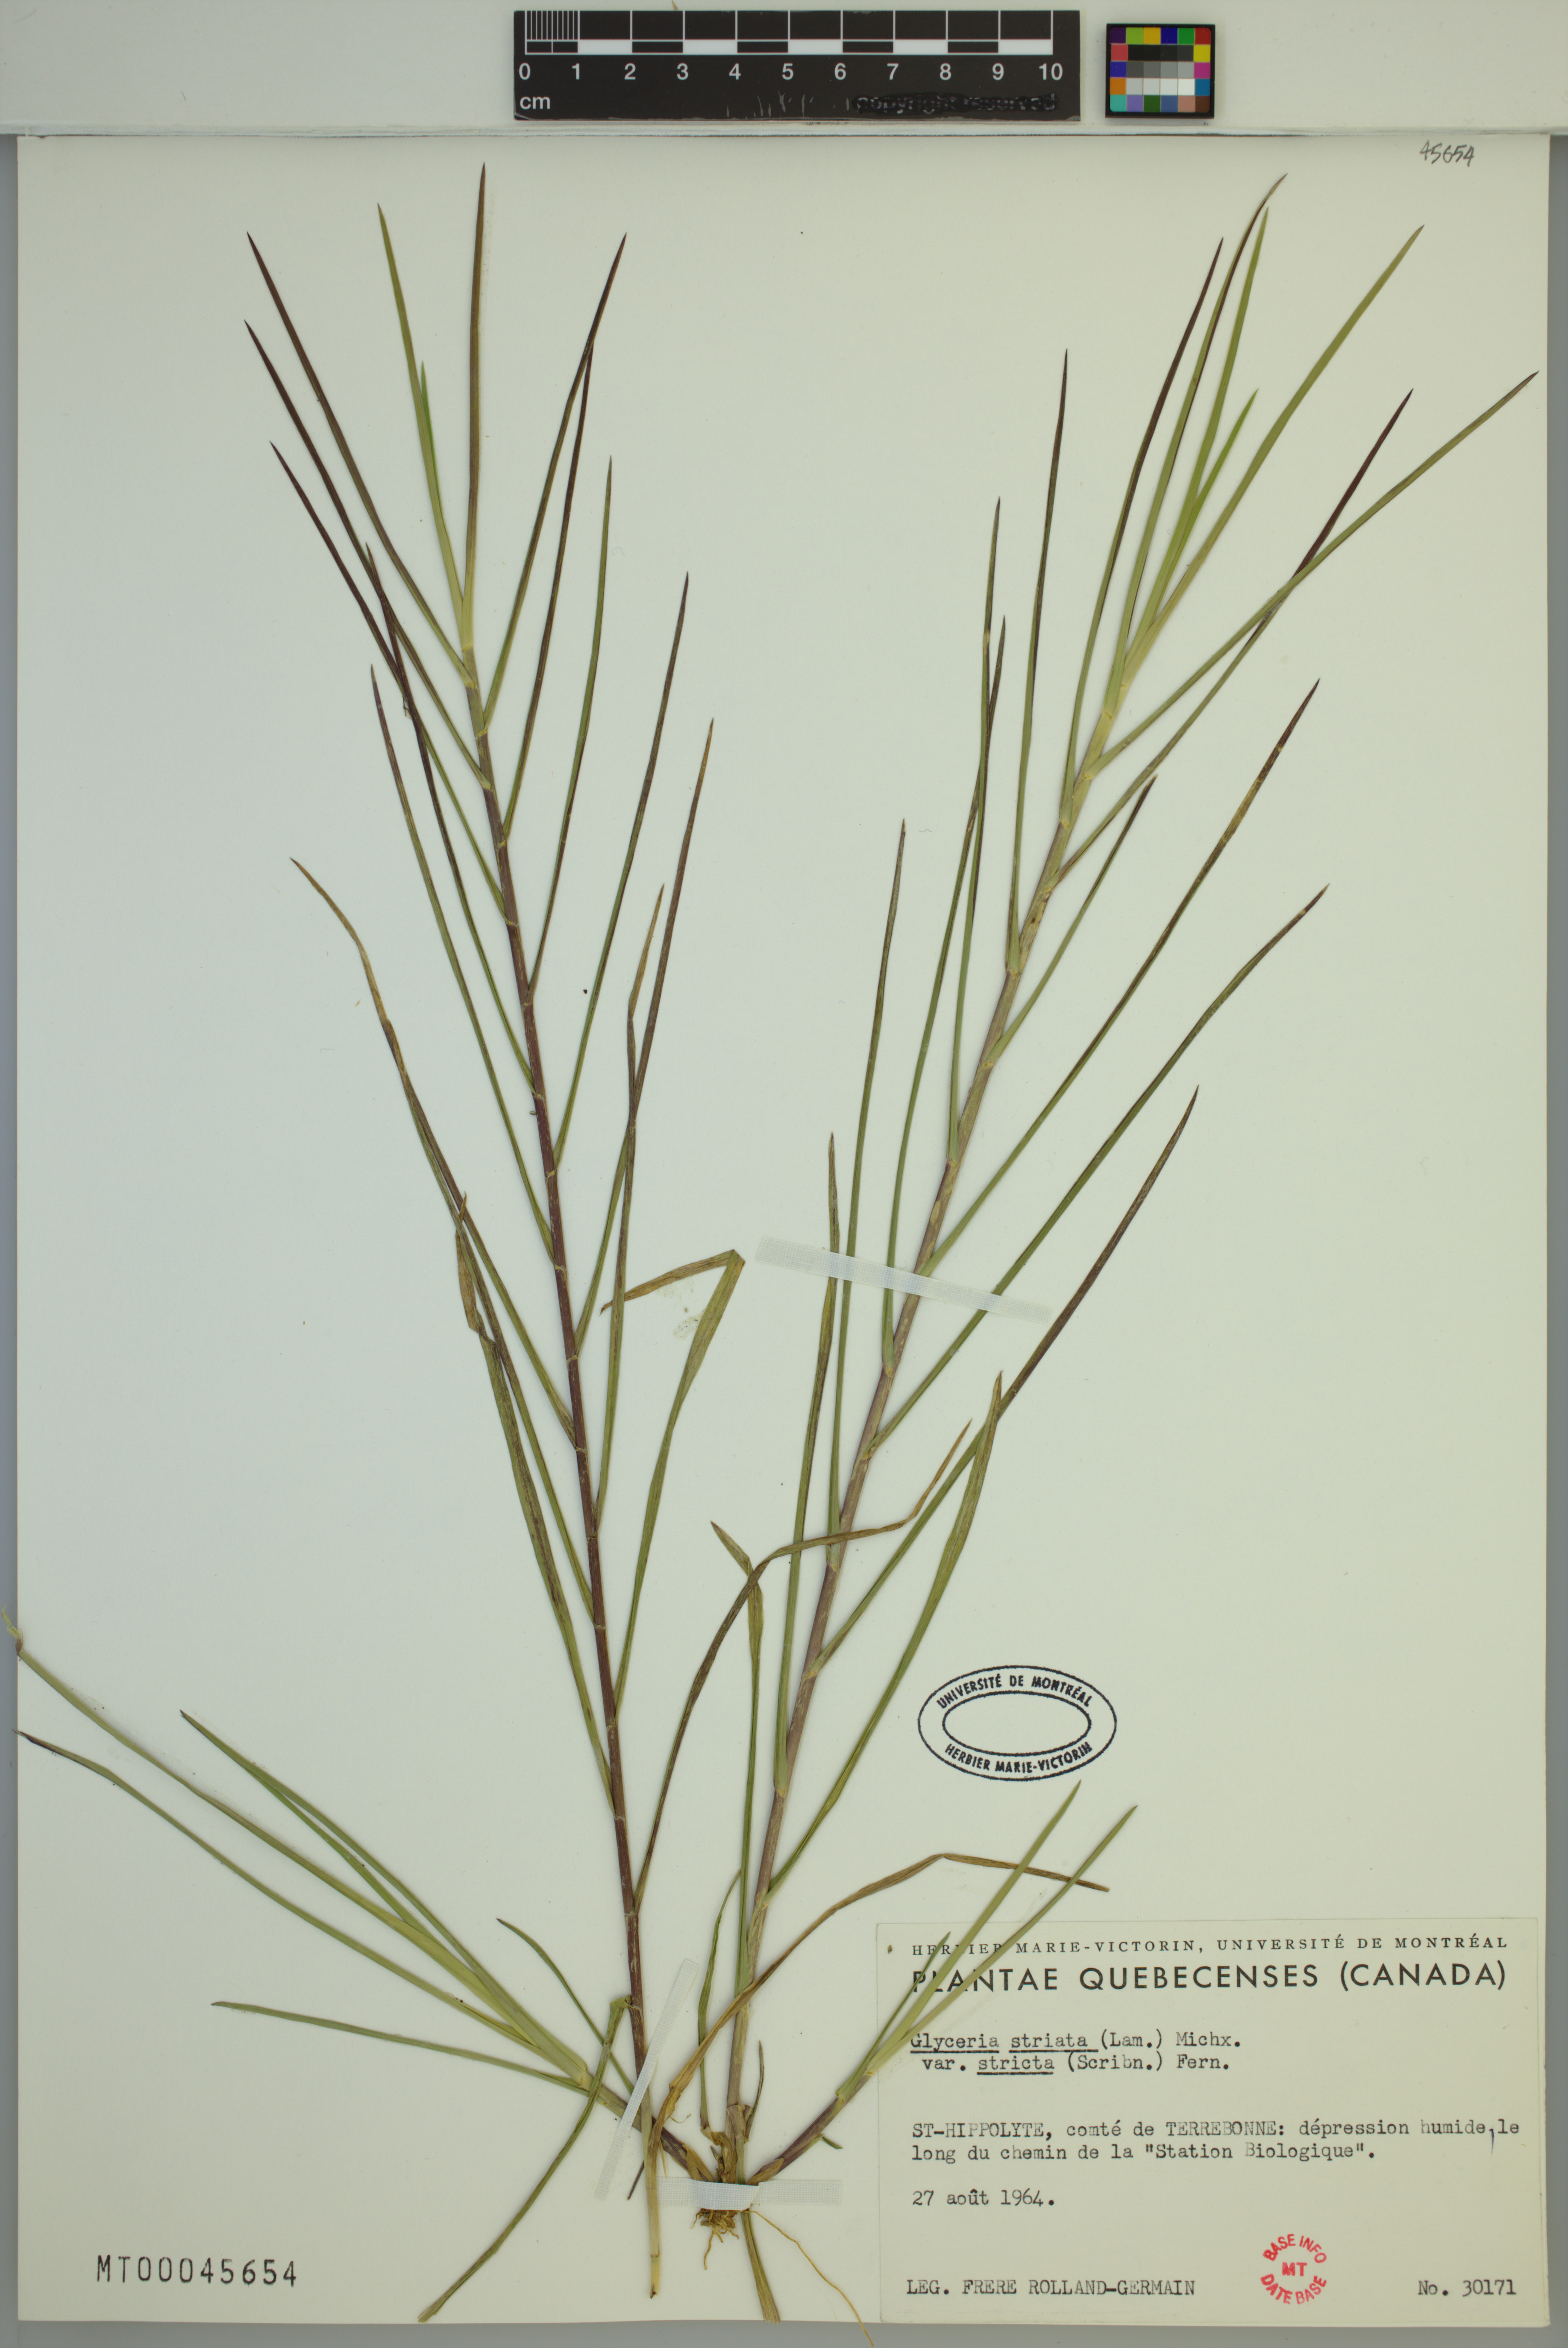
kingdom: Plantae
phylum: Tracheophyta
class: Liliopsida
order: Poales
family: Poaceae
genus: Glyceria
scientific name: Glyceria striata
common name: Fowl manna grass
